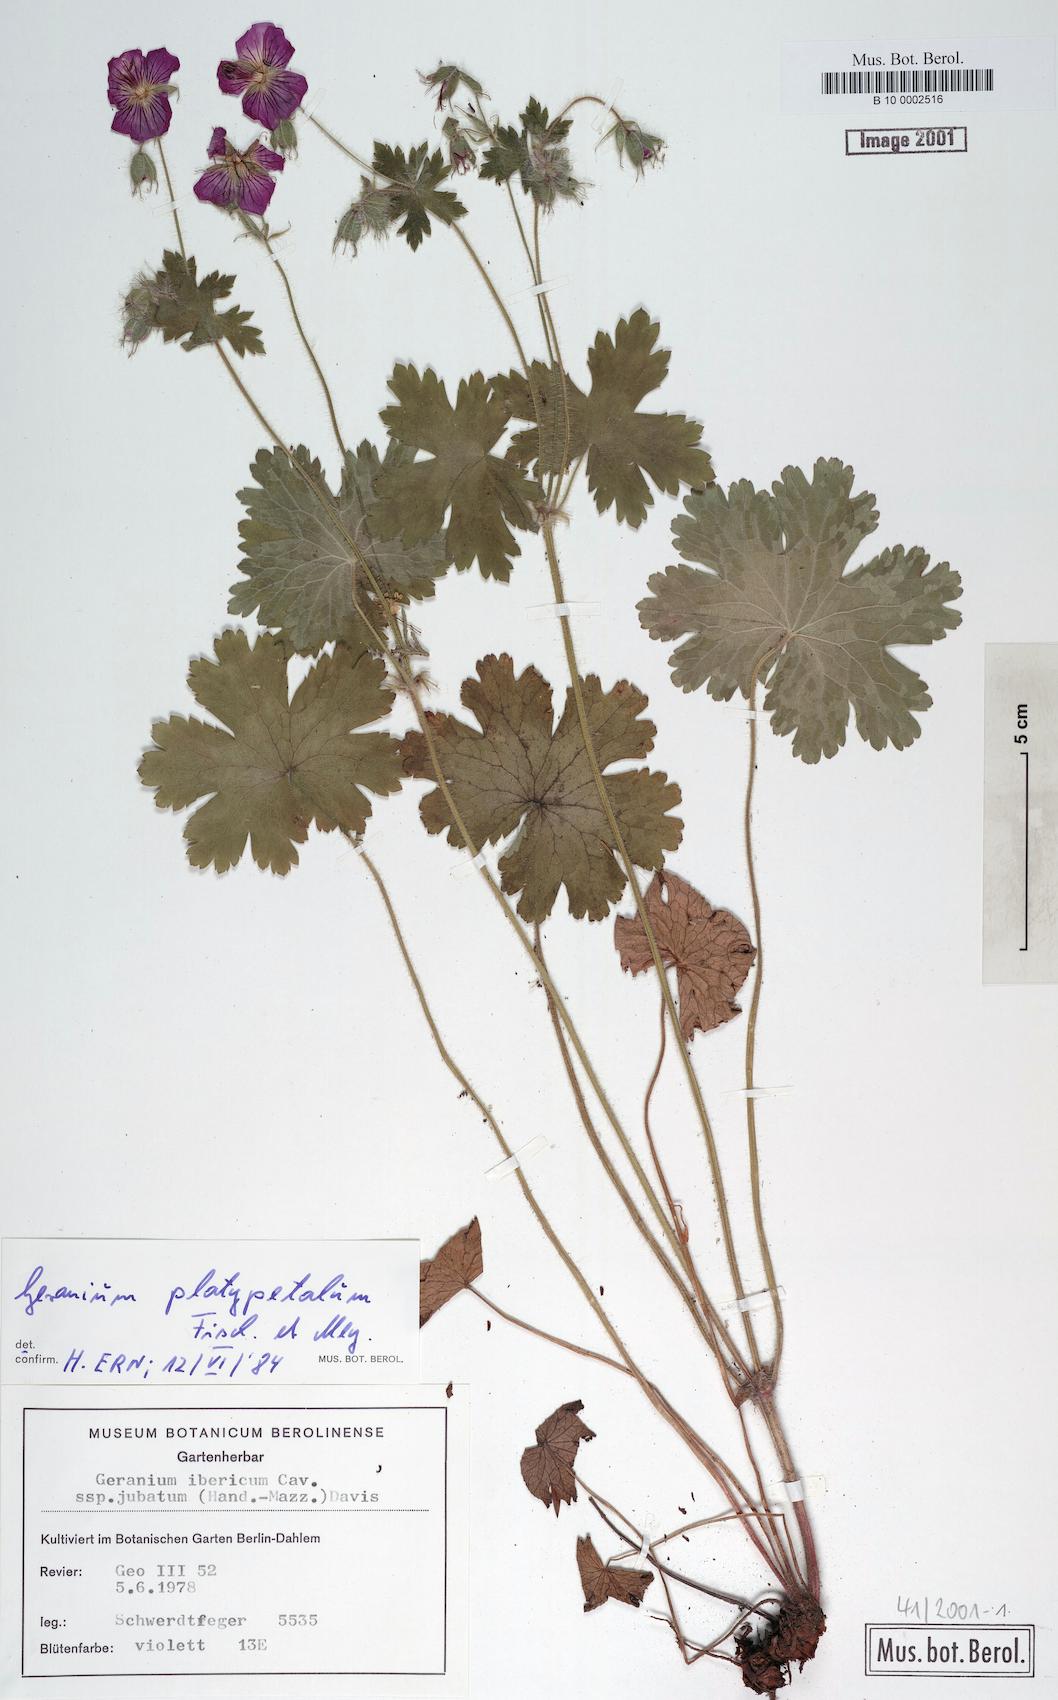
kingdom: Plantae
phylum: Tracheophyta
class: Magnoliopsida
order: Geraniales
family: Geraniaceae
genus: Geranium
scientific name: Geranium platypetalum
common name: Glandular crane's-bill
